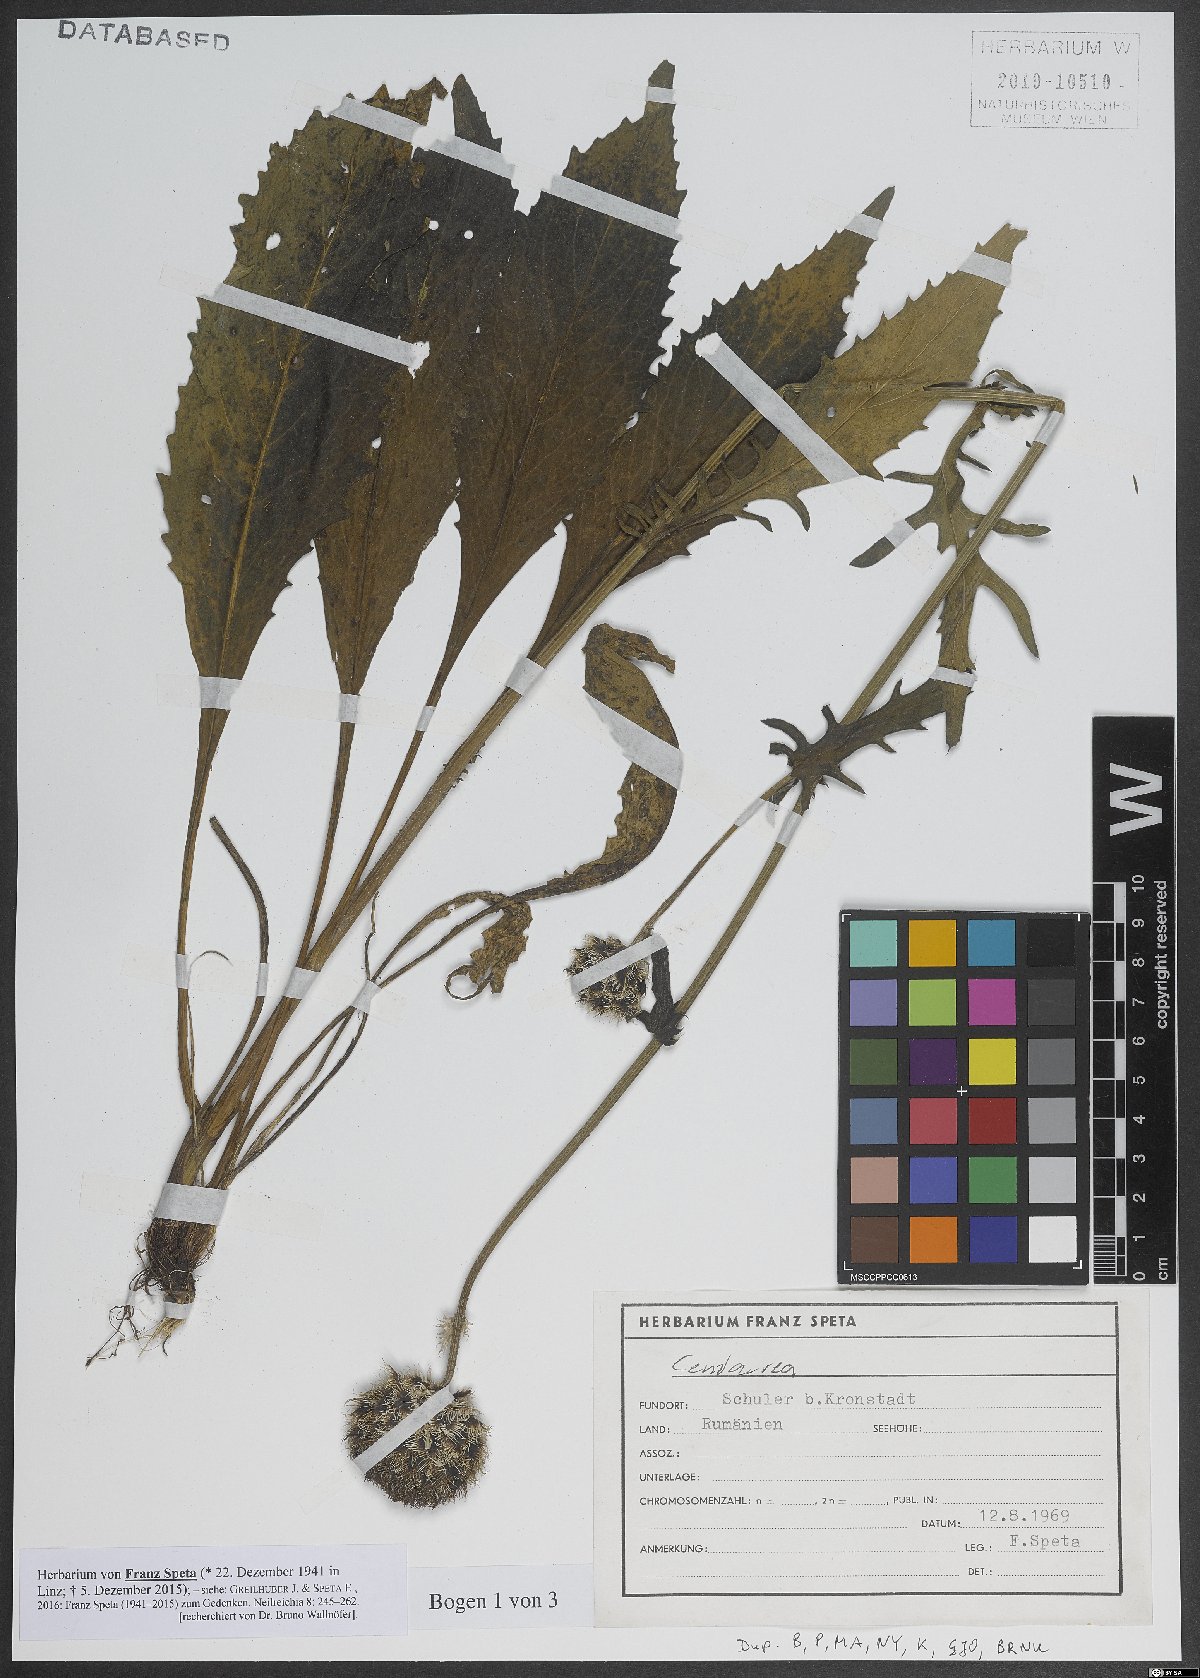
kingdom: Plantae
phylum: Tracheophyta
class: Magnoliopsida
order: Asterales
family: Asteraceae
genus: Centaurea
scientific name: Centaurea
